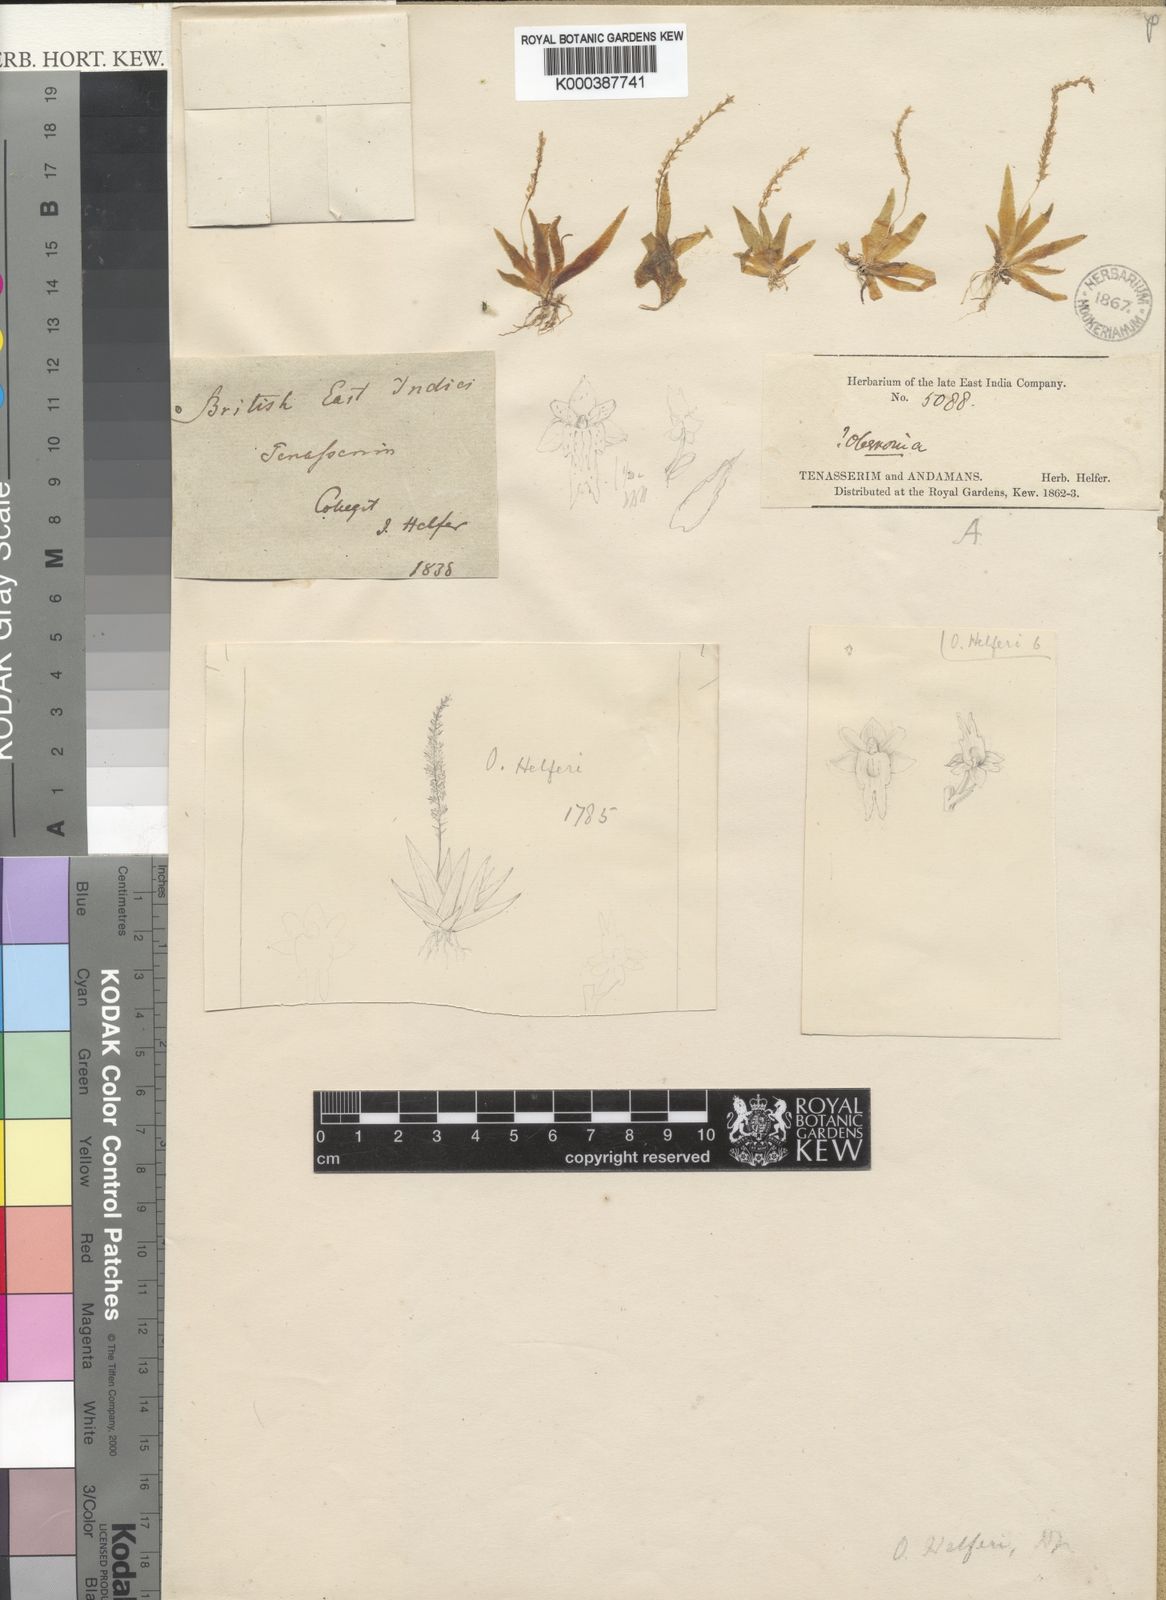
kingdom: Plantae
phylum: Tracheophyta
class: Liliopsida
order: Asparagales
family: Orchidaceae
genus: Oberonia
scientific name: Oberonia helferi
